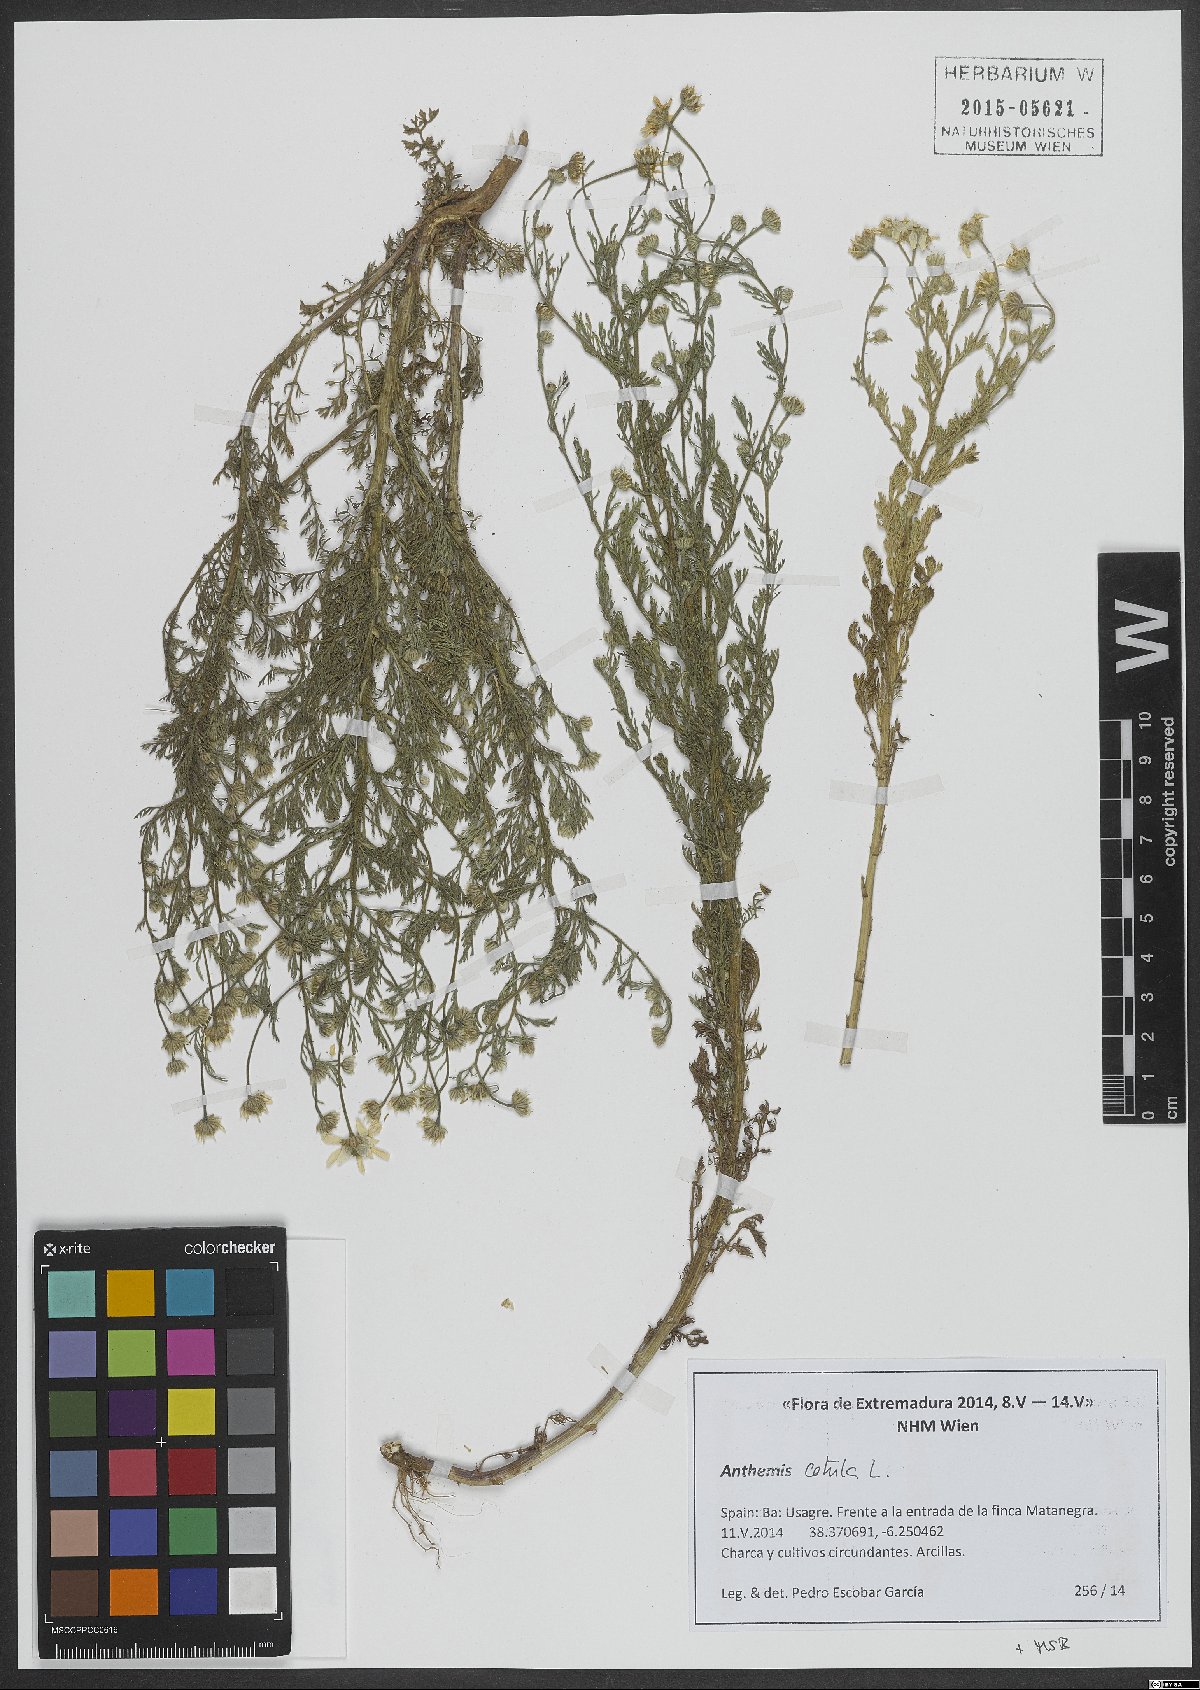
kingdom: Plantae
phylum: Tracheophyta
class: Magnoliopsida
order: Asterales
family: Asteraceae
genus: Anthemis
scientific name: Anthemis cotula
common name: Stinking chamomile
